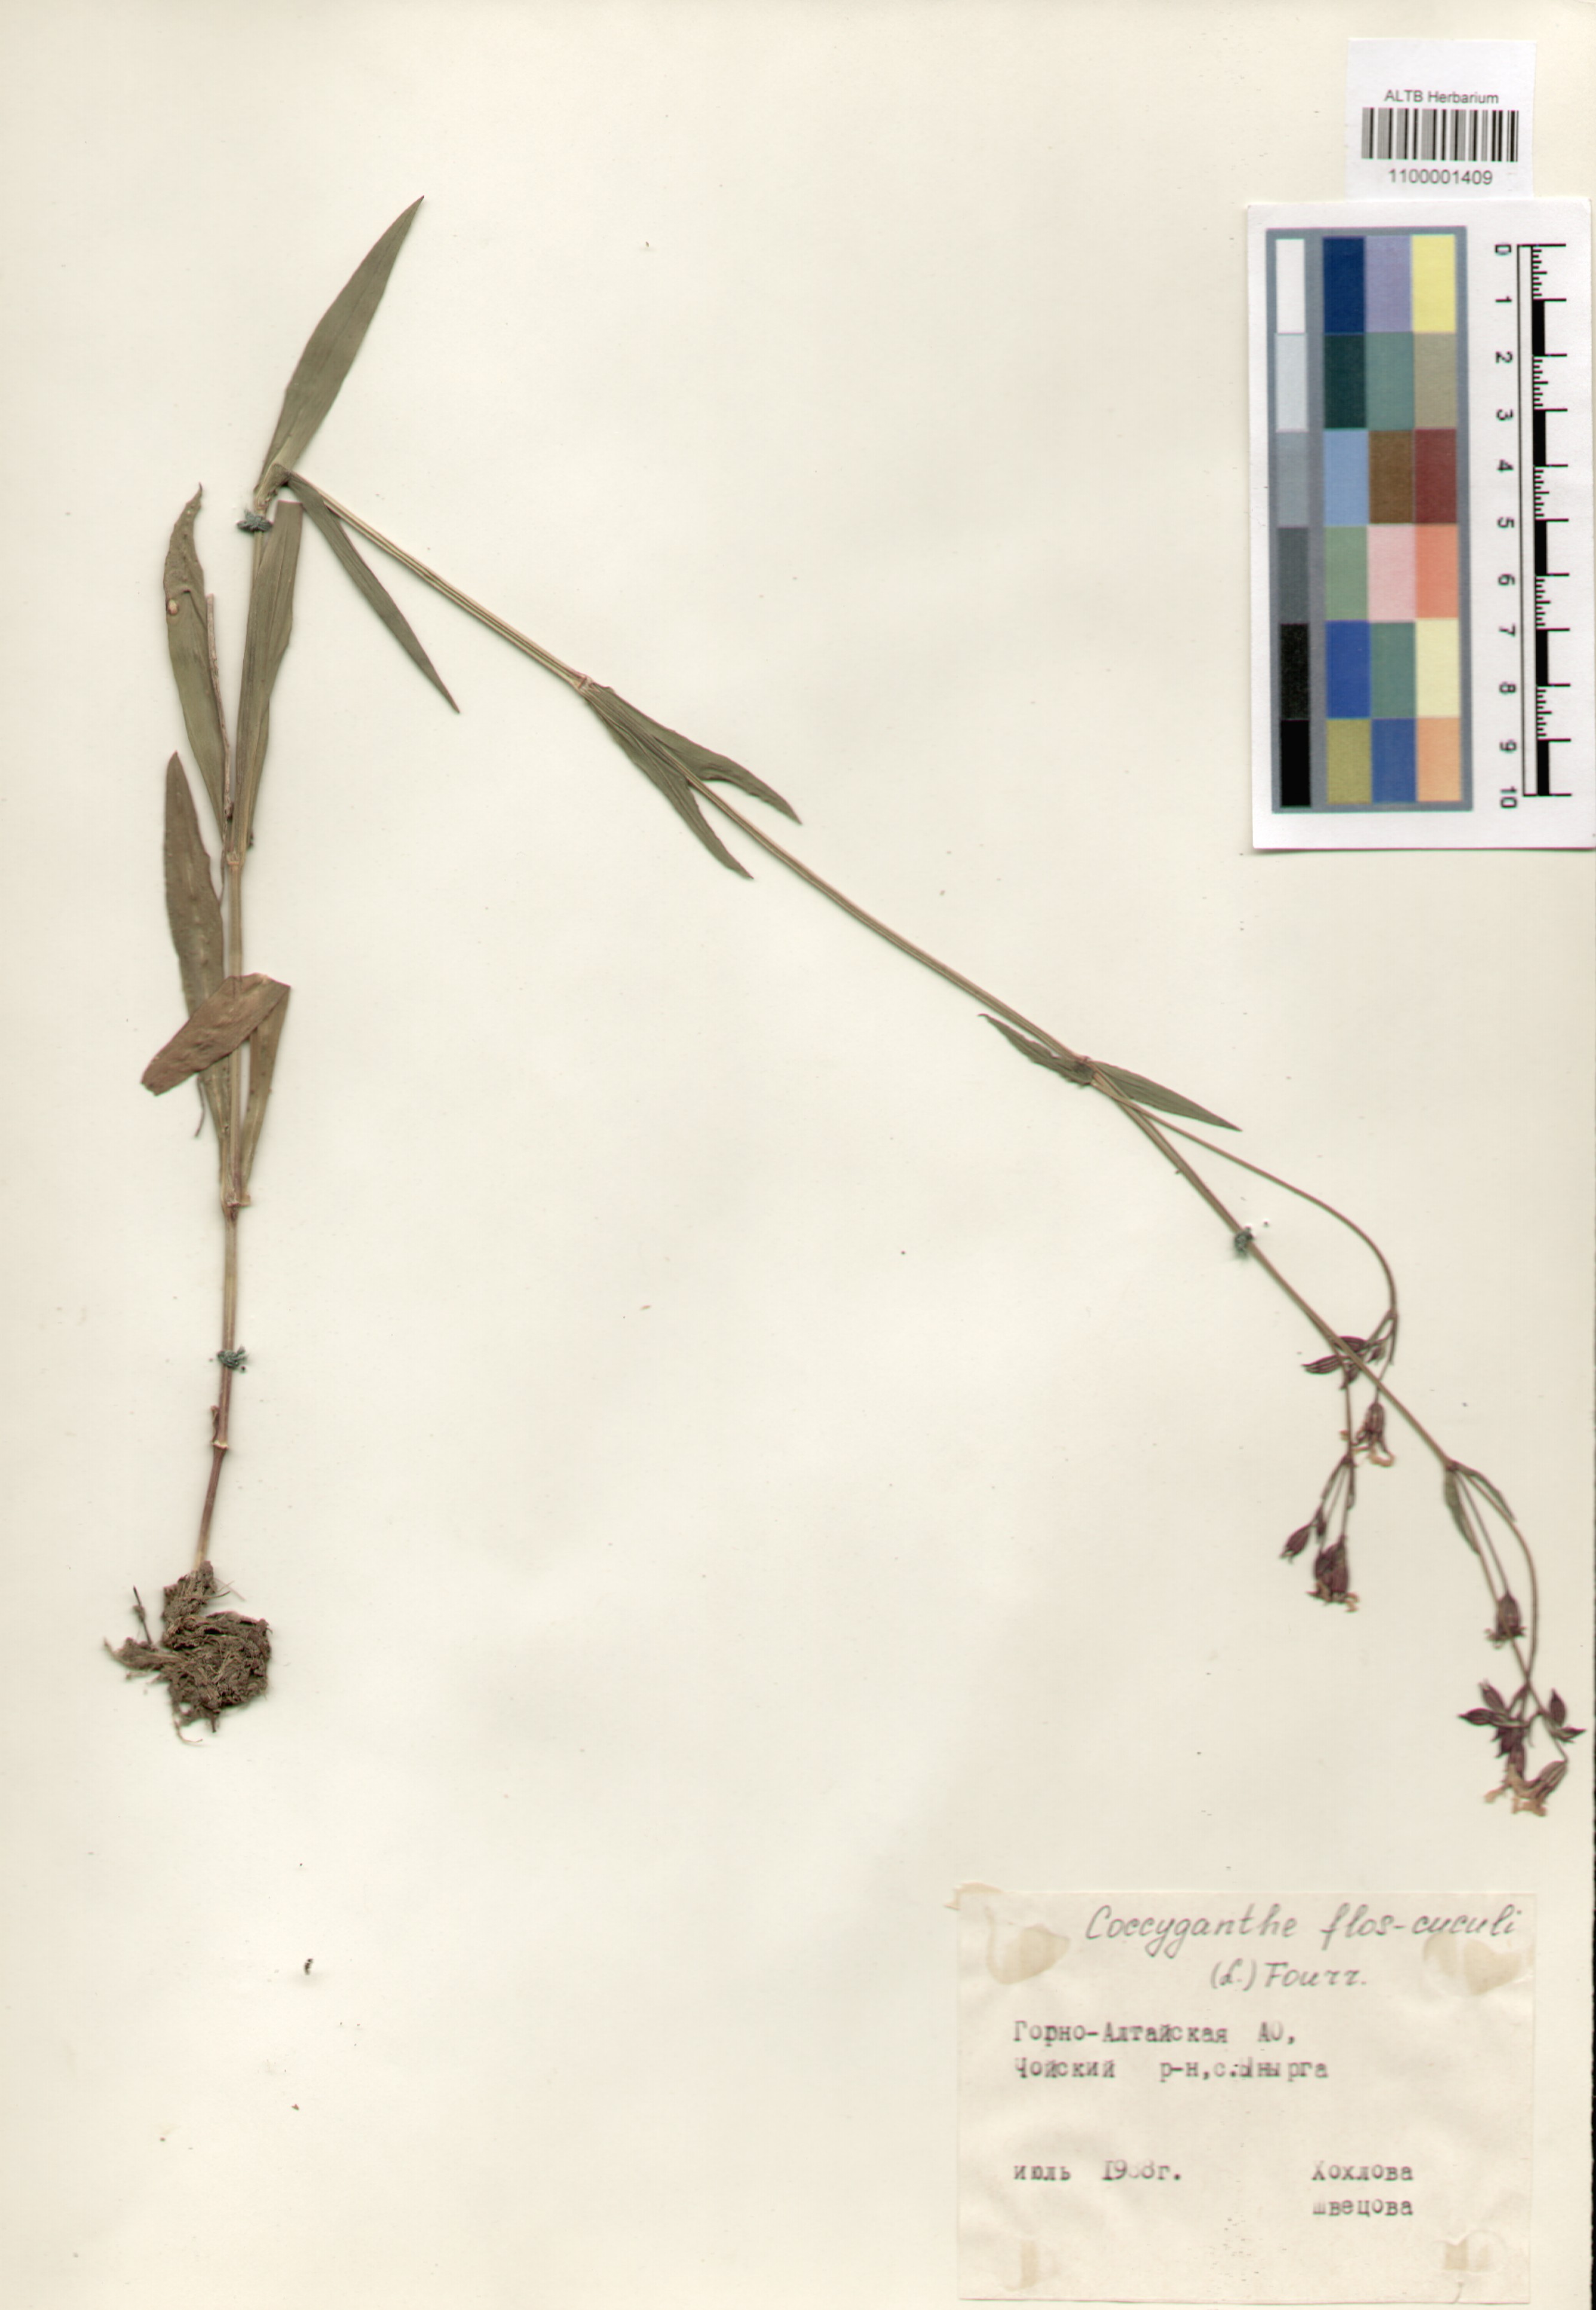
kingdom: Plantae
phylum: Tracheophyta
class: Magnoliopsida
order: Caryophyllales
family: Caryophyllaceae
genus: Silene
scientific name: Silene flos-cuculi
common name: Ragged-robin
